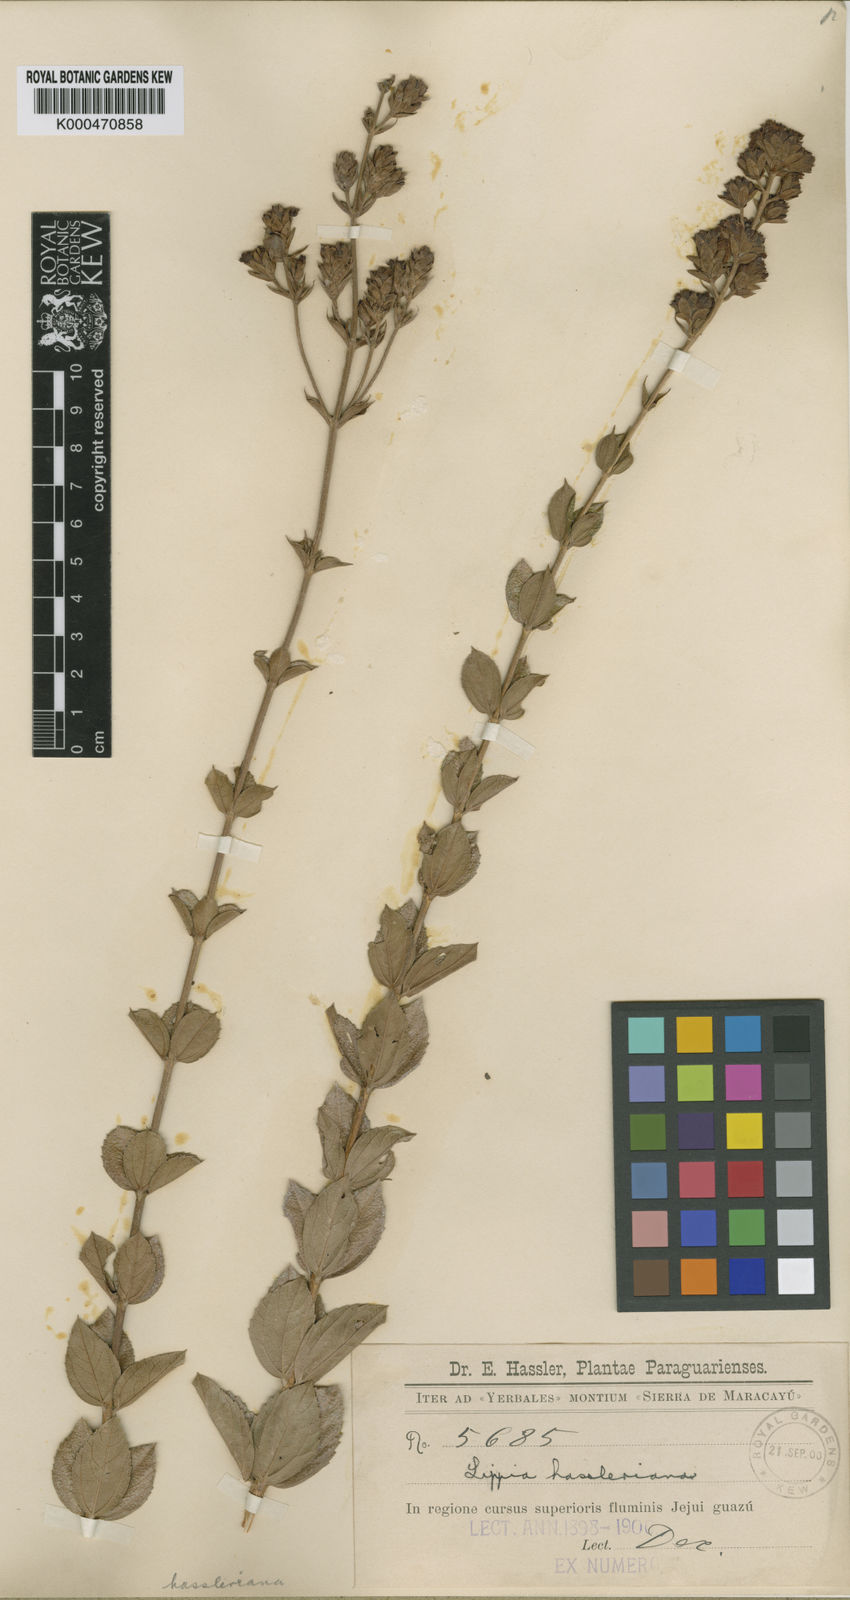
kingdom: Plantae
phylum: Tracheophyta
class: Magnoliopsida
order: Lamiales
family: Verbenaceae
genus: Lippia
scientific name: Lippia hassleriana
